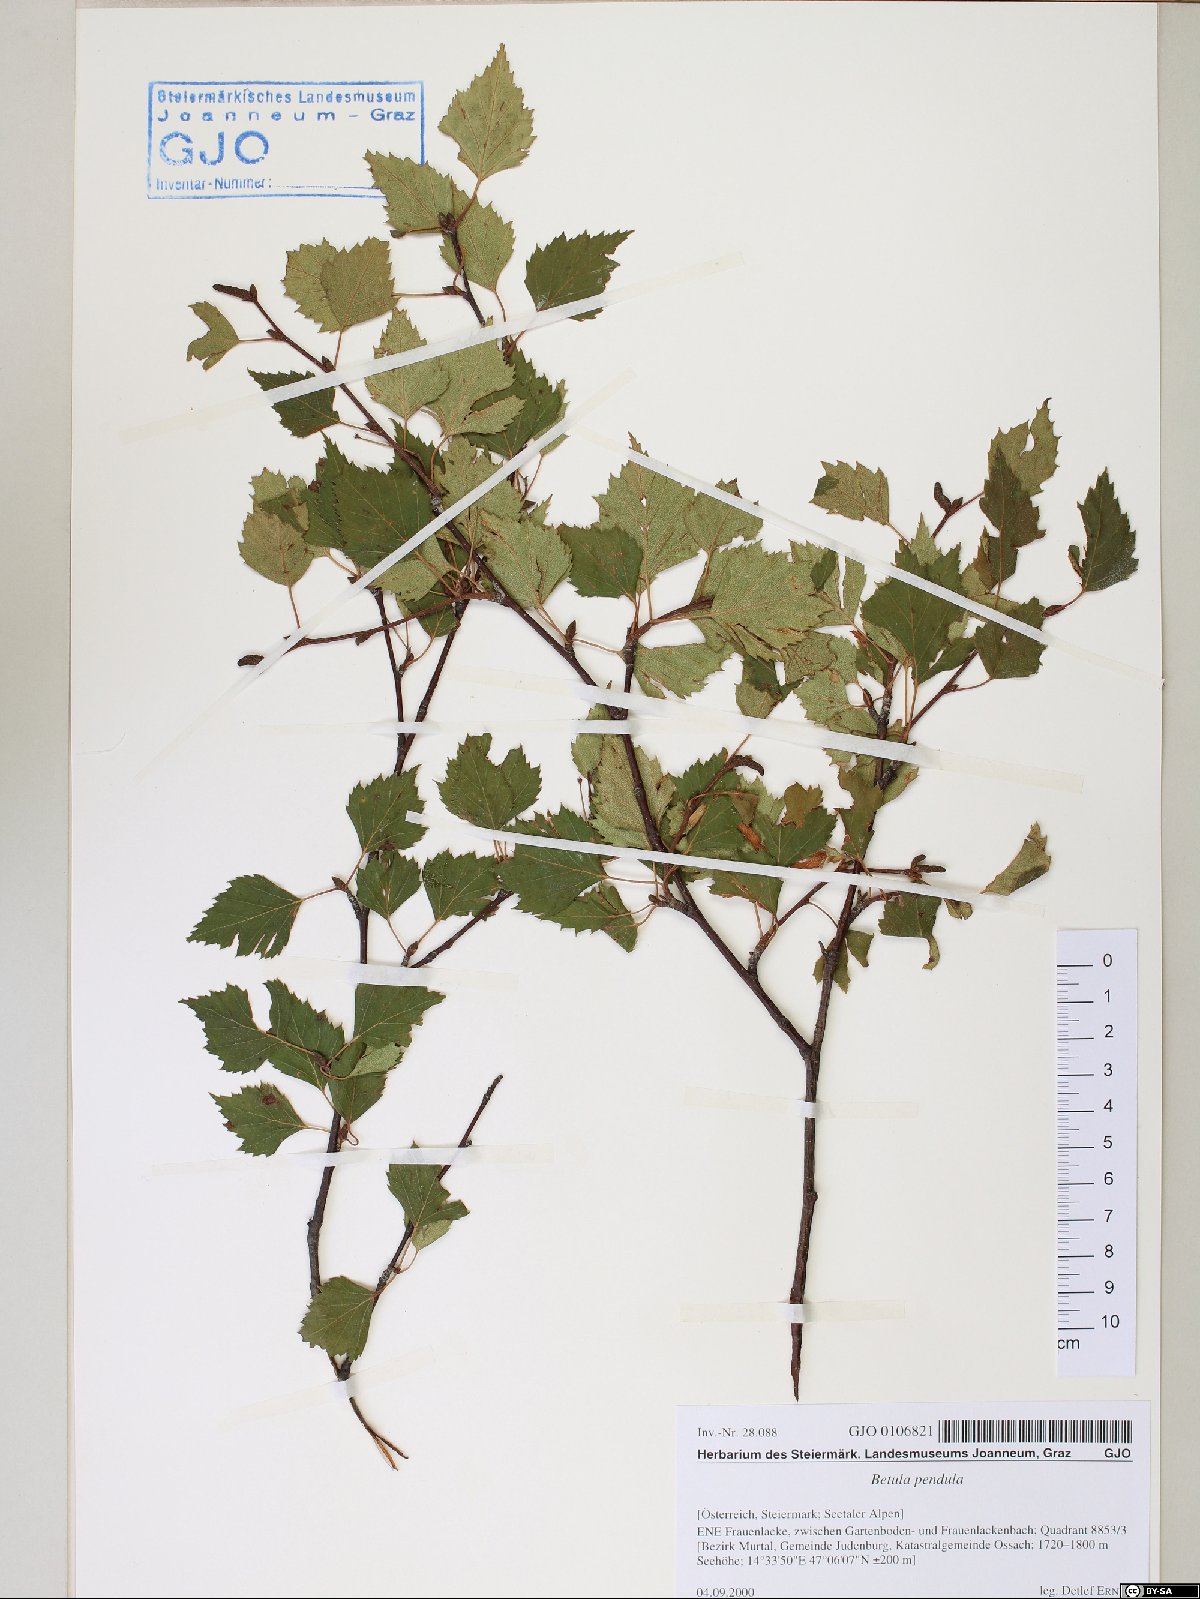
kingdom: Plantae
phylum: Tracheophyta
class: Magnoliopsida
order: Fagales
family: Betulaceae
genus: Betula
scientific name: Betula pendula
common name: Silver birch
